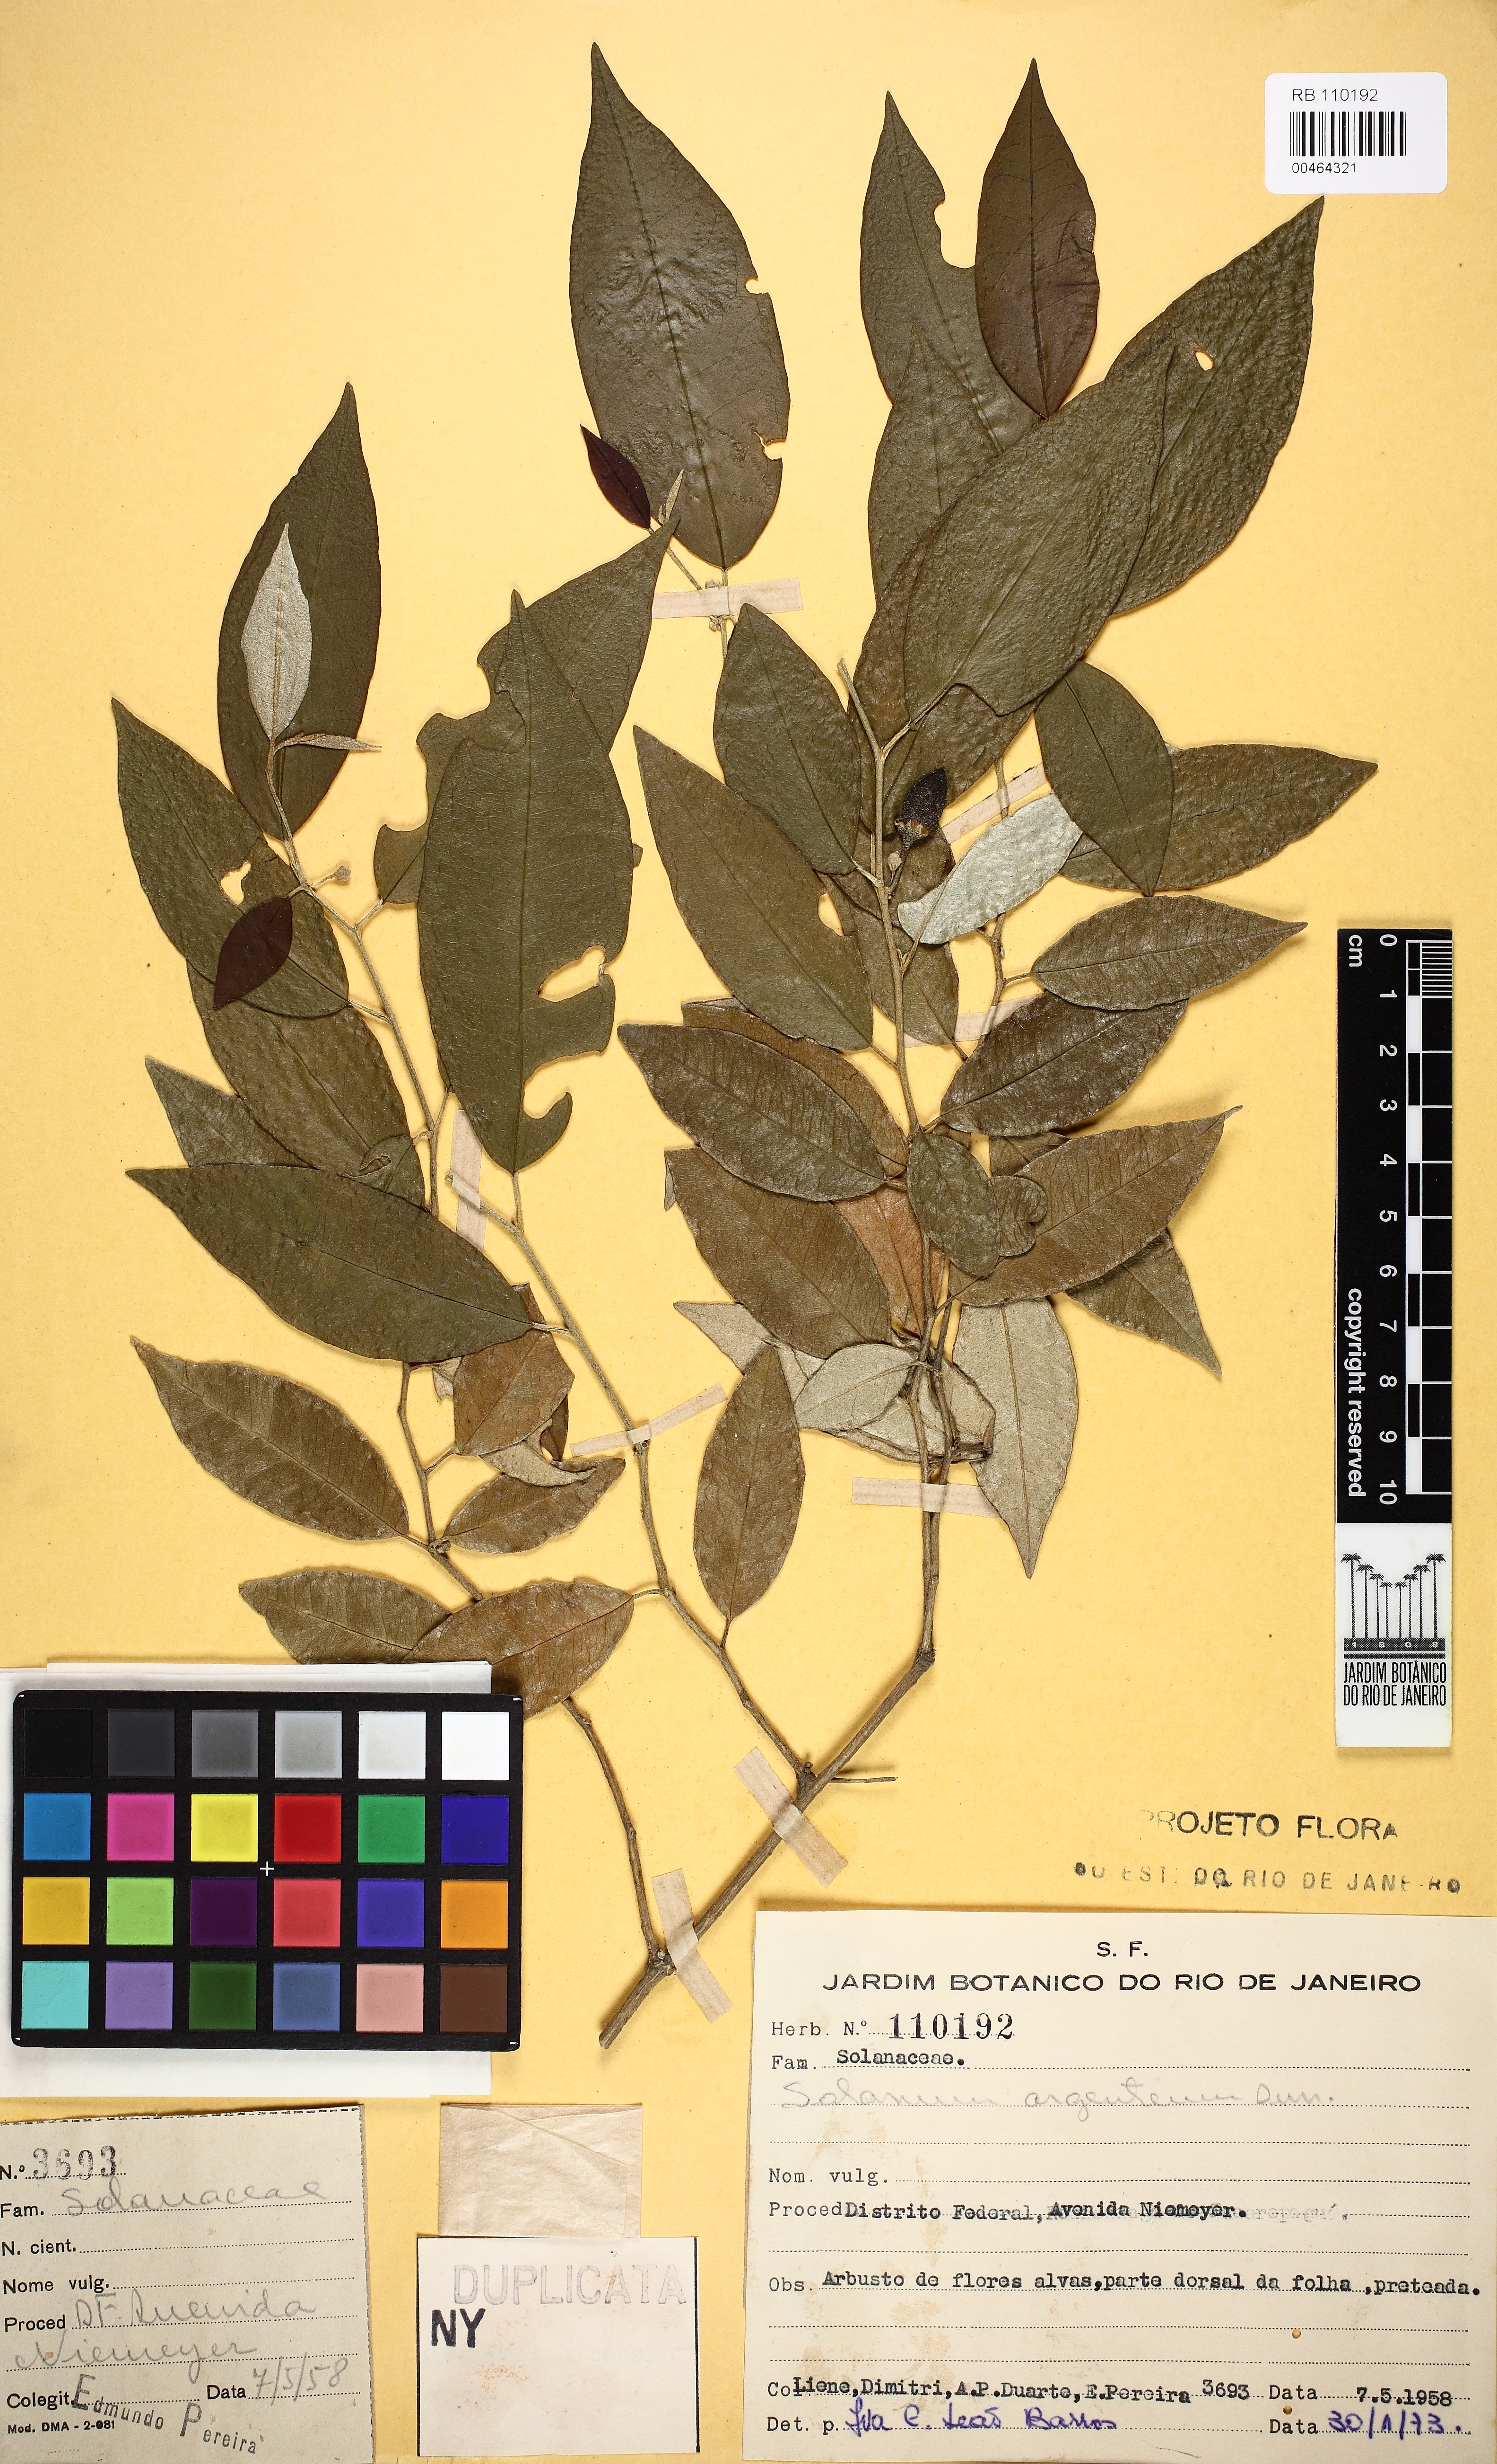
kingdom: Plantae
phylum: Tracheophyta
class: Magnoliopsida
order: Solanales
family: Solanaceae
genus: Solanum
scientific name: Solanum swartzianum
